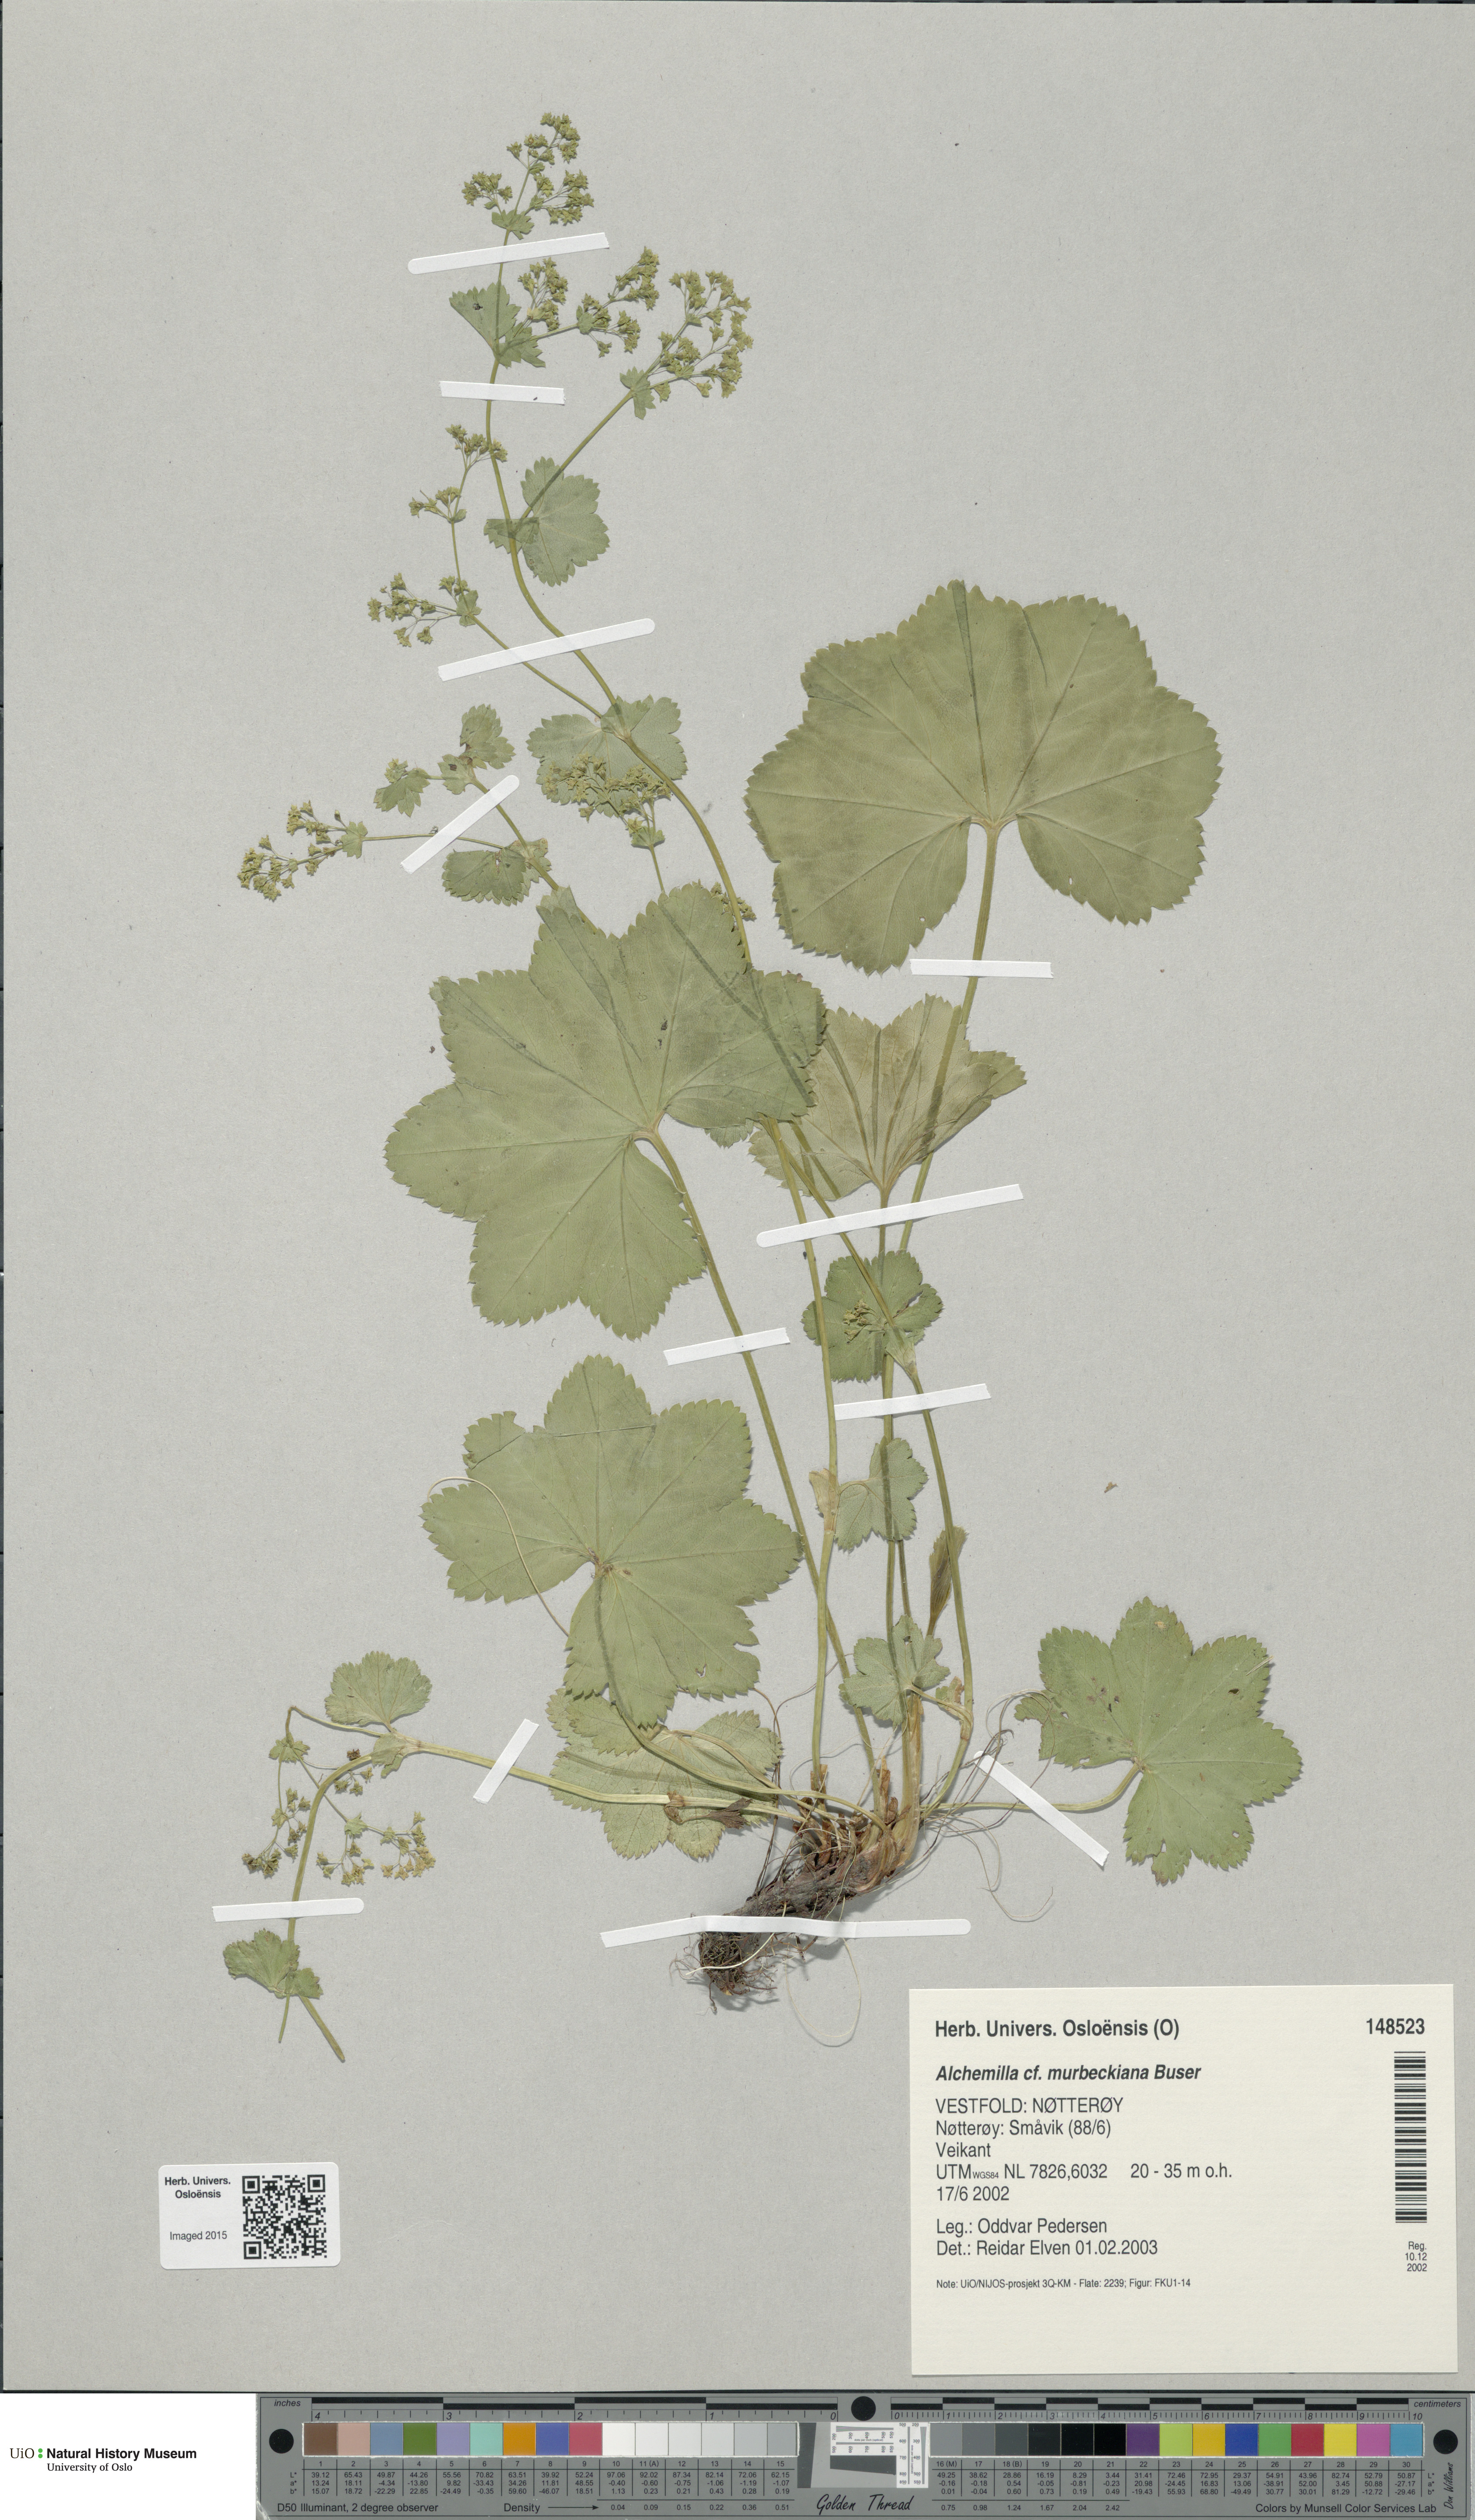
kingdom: Plantae
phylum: Tracheophyta
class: Magnoliopsida
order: Rosales
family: Rosaceae
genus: Alchemilla
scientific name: Alchemilla murbeckiana
